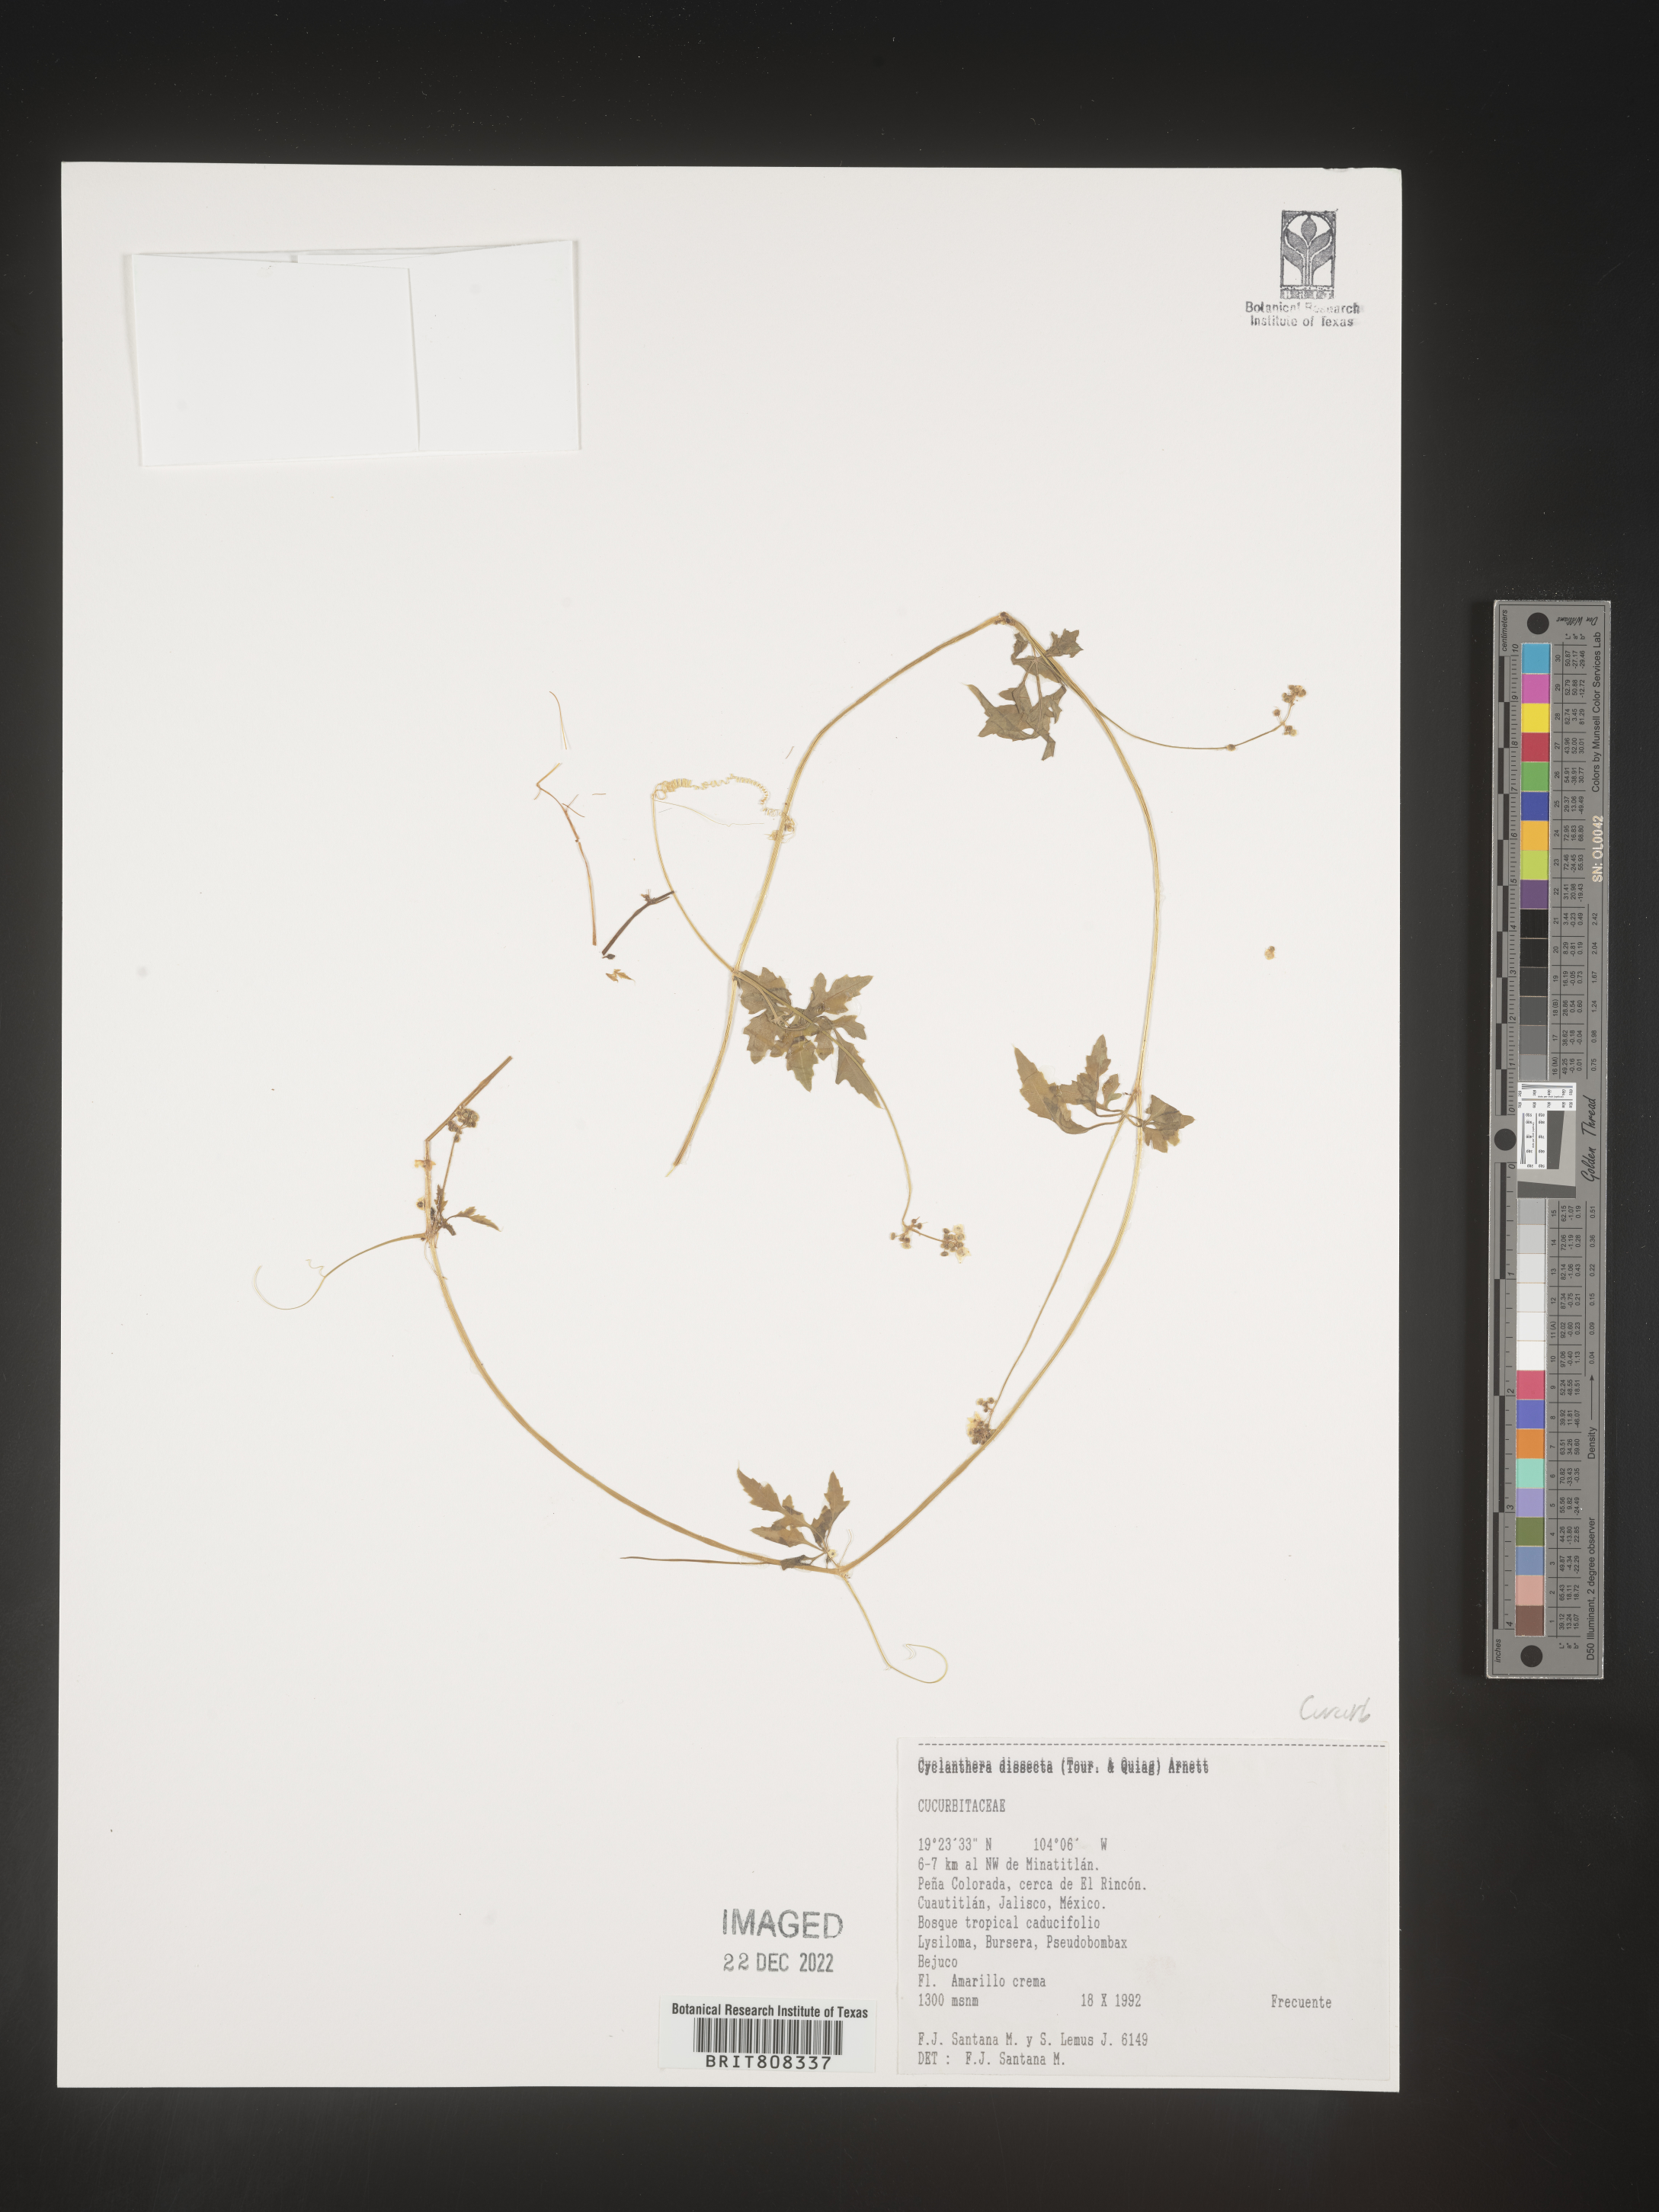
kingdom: Plantae
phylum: Tracheophyta
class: Magnoliopsida
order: Cucurbitales
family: Cucurbitaceae
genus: Cyclanthera
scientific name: Cyclanthera
